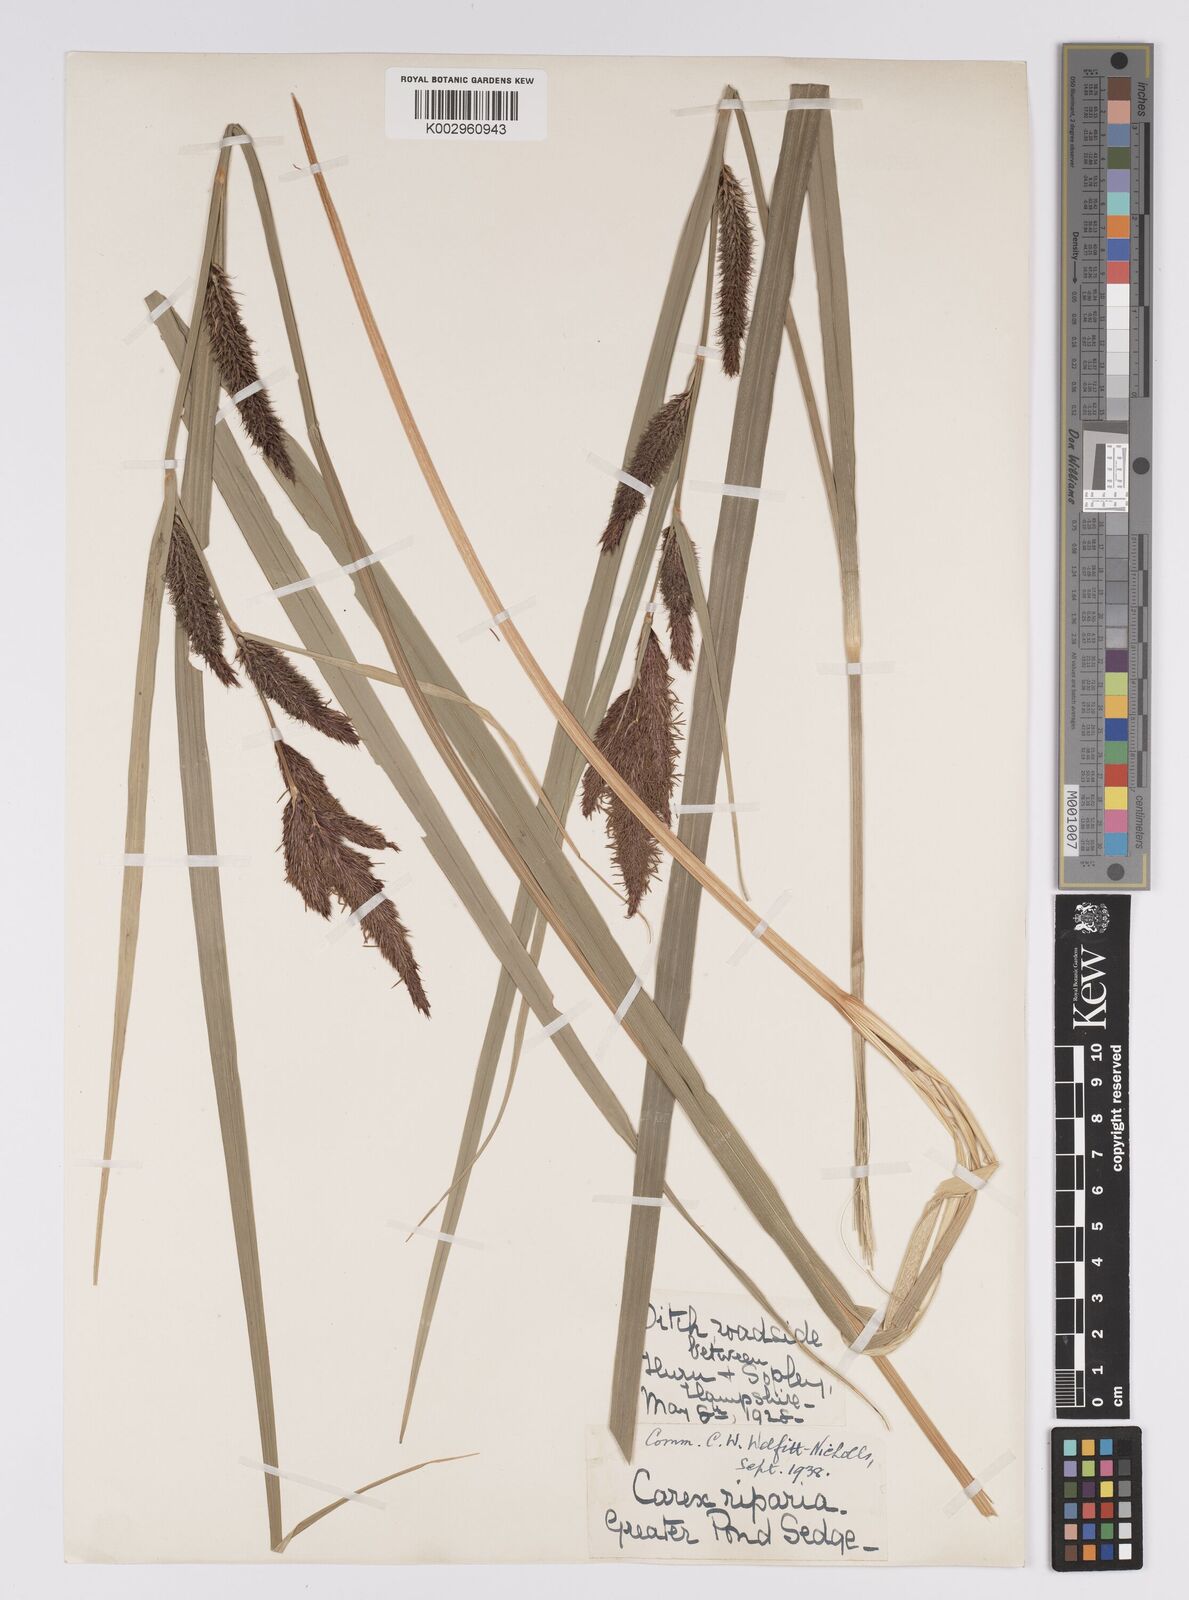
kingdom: Plantae
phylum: Tracheophyta
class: Liliopsida
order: Poales
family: Cyperaceae
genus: Carex
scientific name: Carex riparia
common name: Greater pond-sedge
